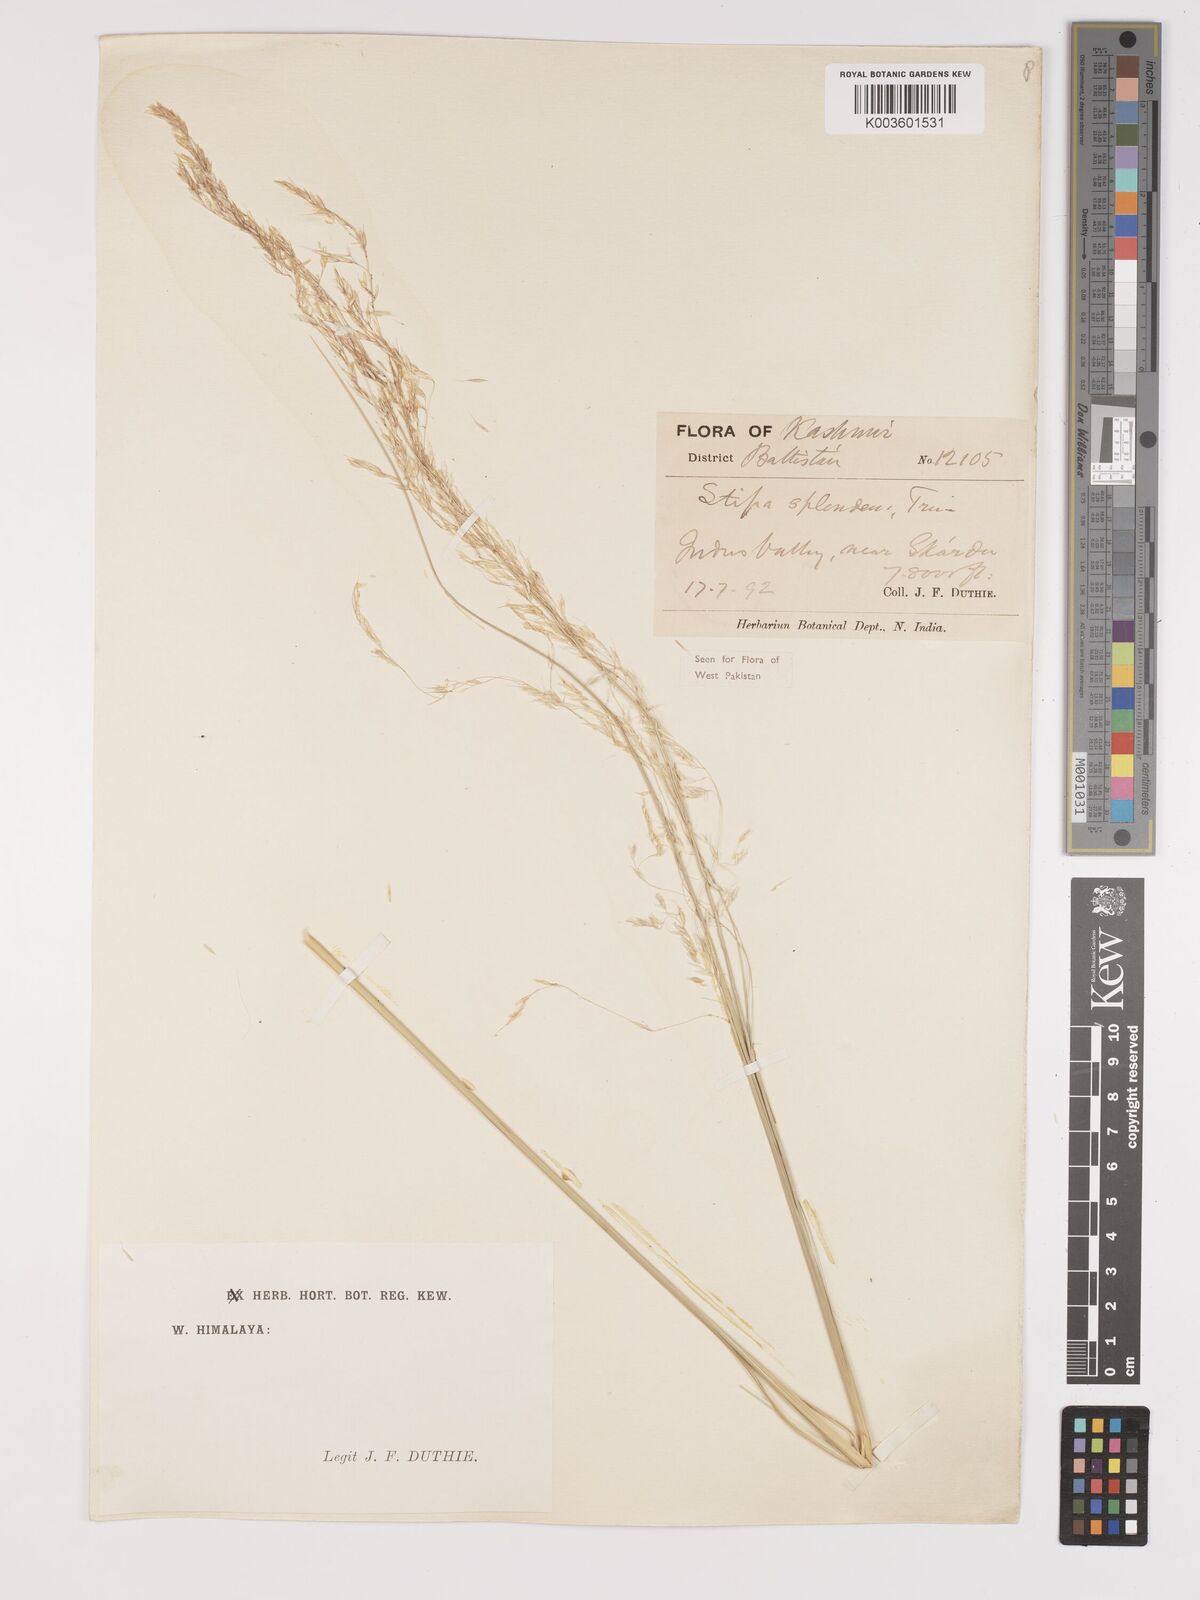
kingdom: Plantae
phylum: Tracheophyta
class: Liliopsida
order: Poales
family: Poaceae
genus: Neotrinia
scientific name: Neotrinia splendens
